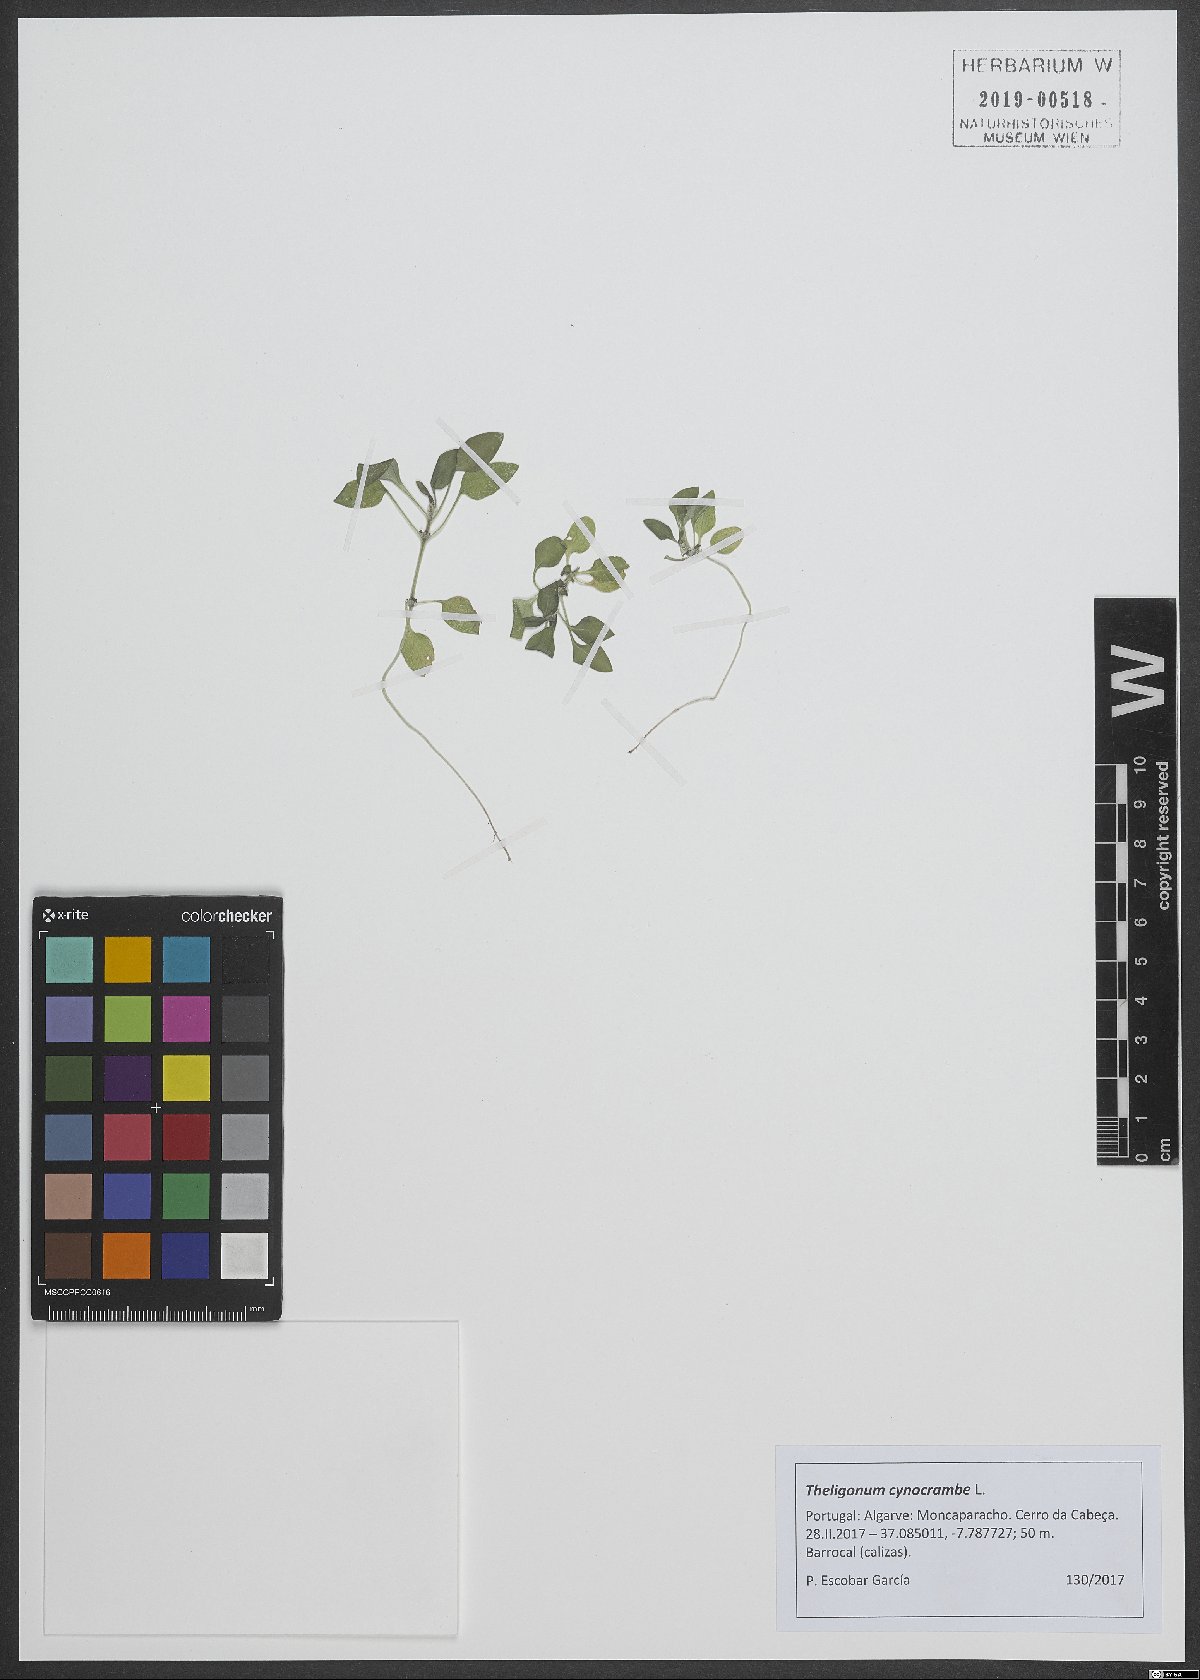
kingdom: Plantae
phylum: Tracheophyta
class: Magnoliopsida
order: Gentianales
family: Rubiaceae
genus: Theligonum
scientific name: Theligonum cynocrambe
